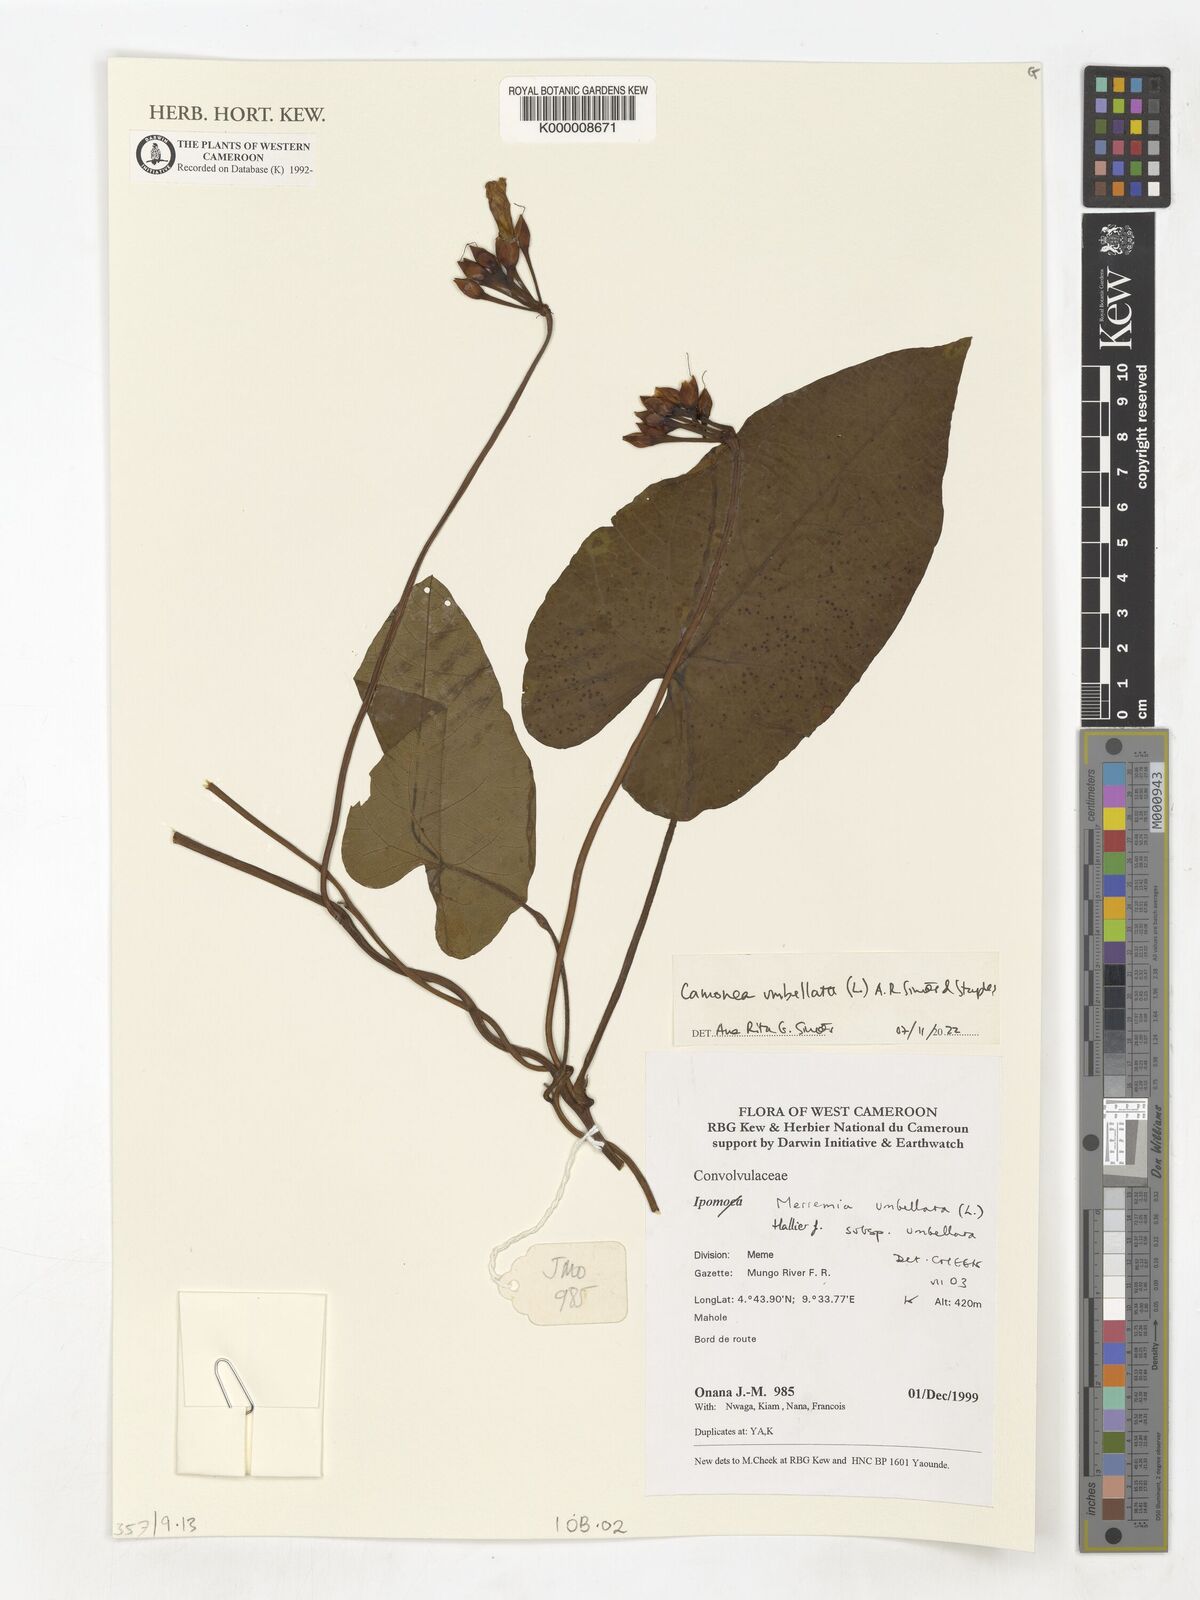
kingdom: Plantae
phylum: Tracheophyta
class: Magnoliopsida
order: Solanales
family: Convolvulaceae
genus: Camonea
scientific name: Camonea umbellata
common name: Hogvine
